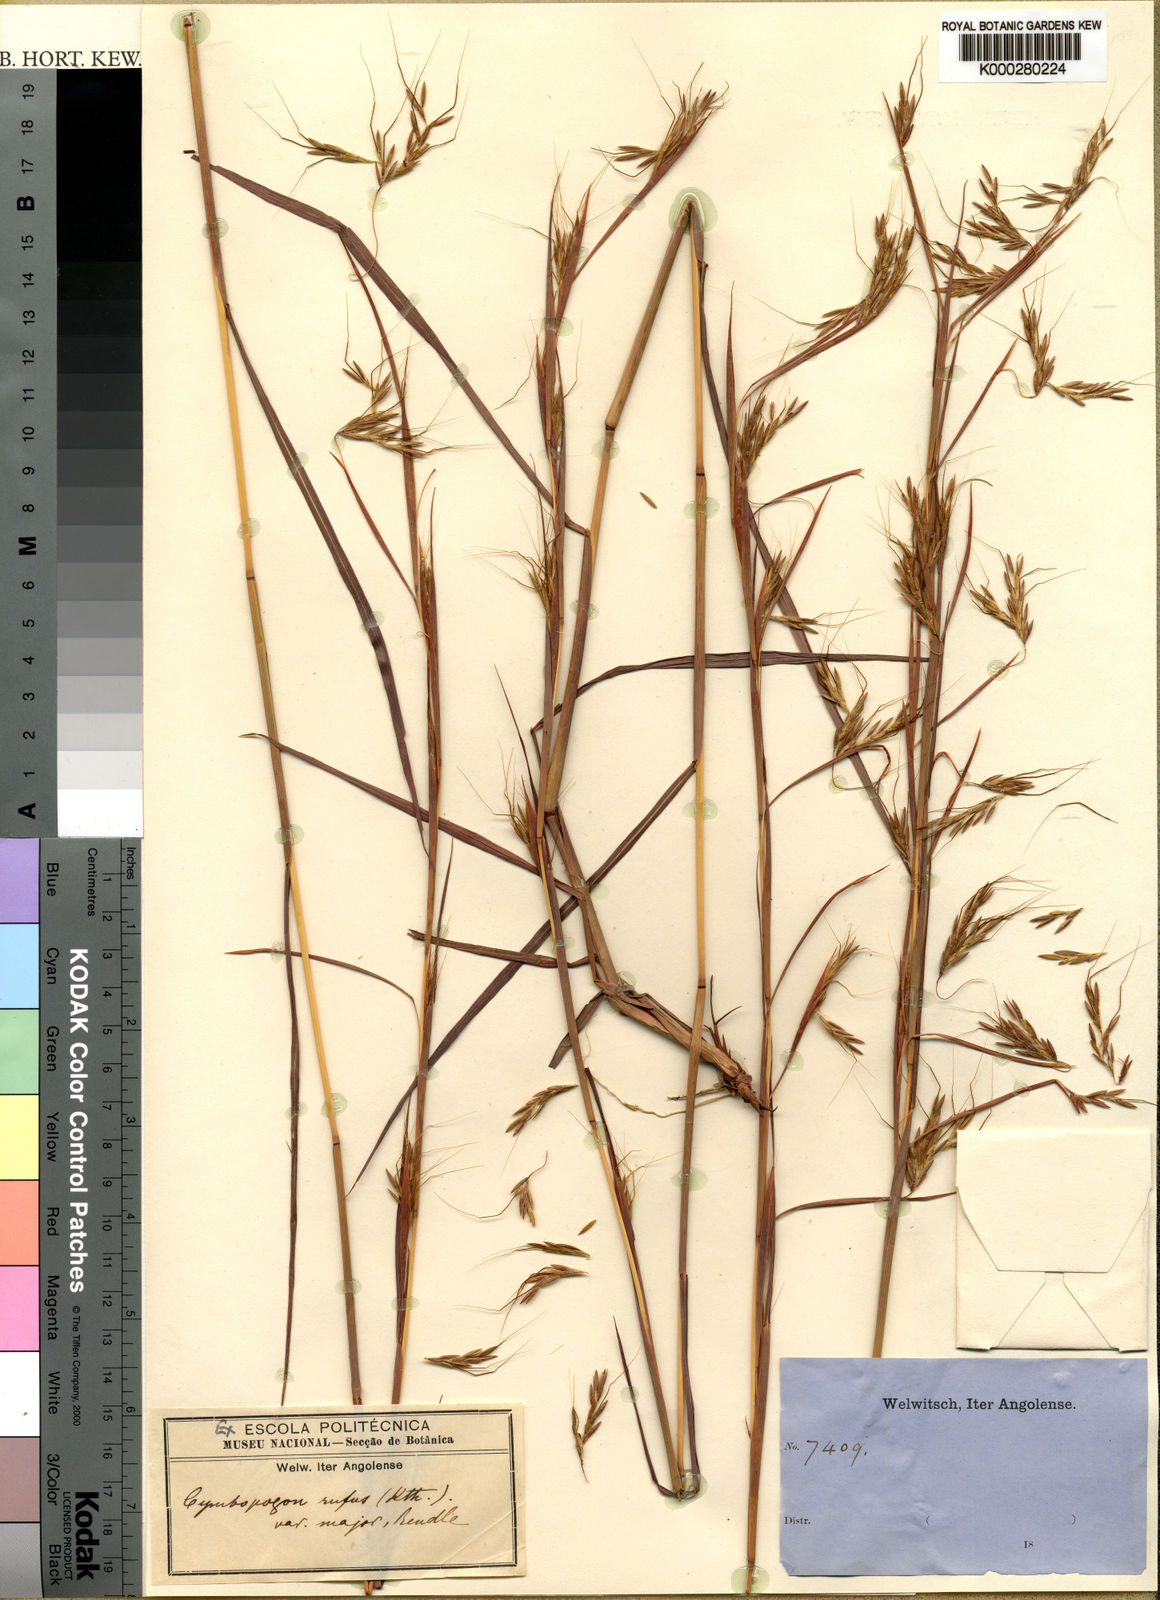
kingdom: Plantae
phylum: Tracheophyta
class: Liliopsida
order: Poales
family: Poaceae
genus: Hyparrhenia
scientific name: Hyparrhenia rufa
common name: Jaraguagrass
